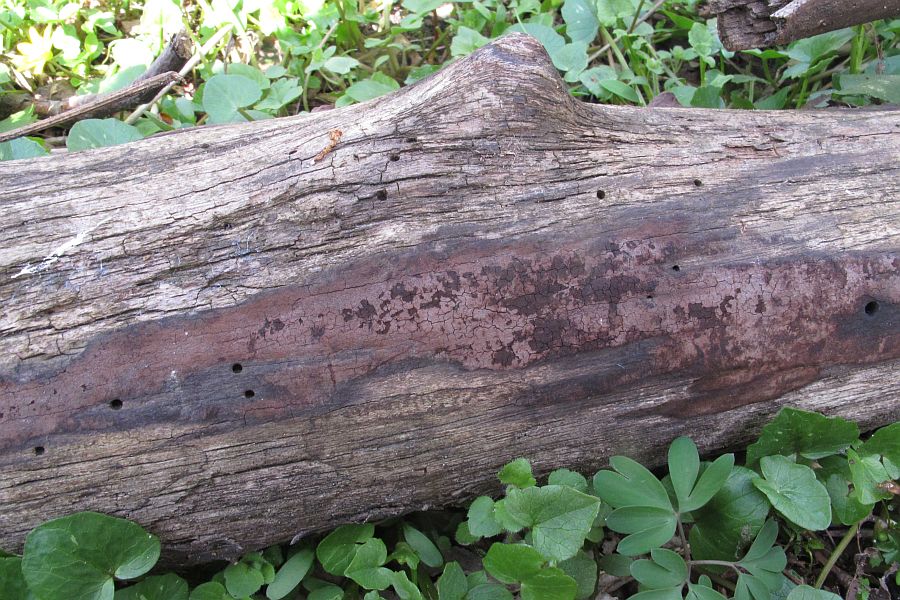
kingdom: Fungi
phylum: Ascomycota
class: Sordariomycetes
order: Xylariales
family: Hypoxylaceae
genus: Hypoxylon
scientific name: Hypoxylon macrocarpum
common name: skorpe-kulbær
